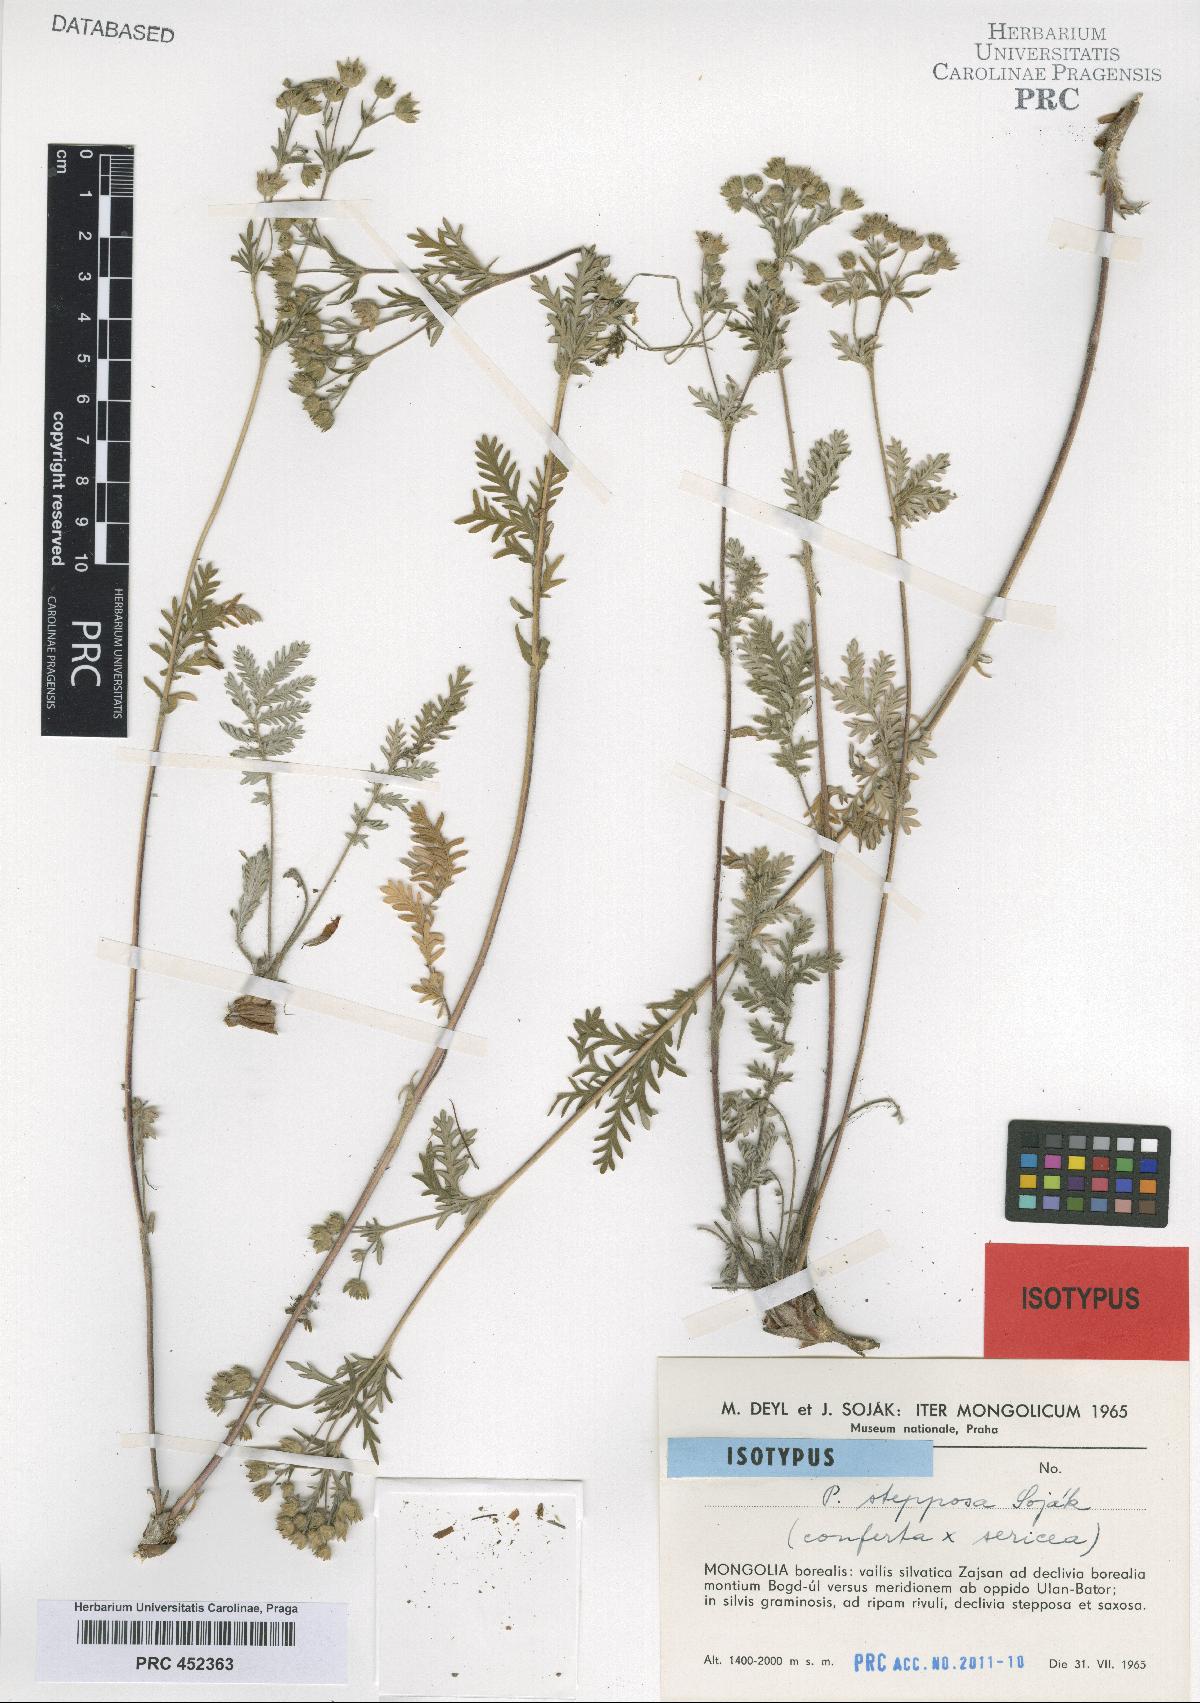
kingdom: Plantae
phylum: Tracheophyta
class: Magnoliopsida
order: Rosales
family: Rosaceae
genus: Potentilla
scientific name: Potentilla stepposa
